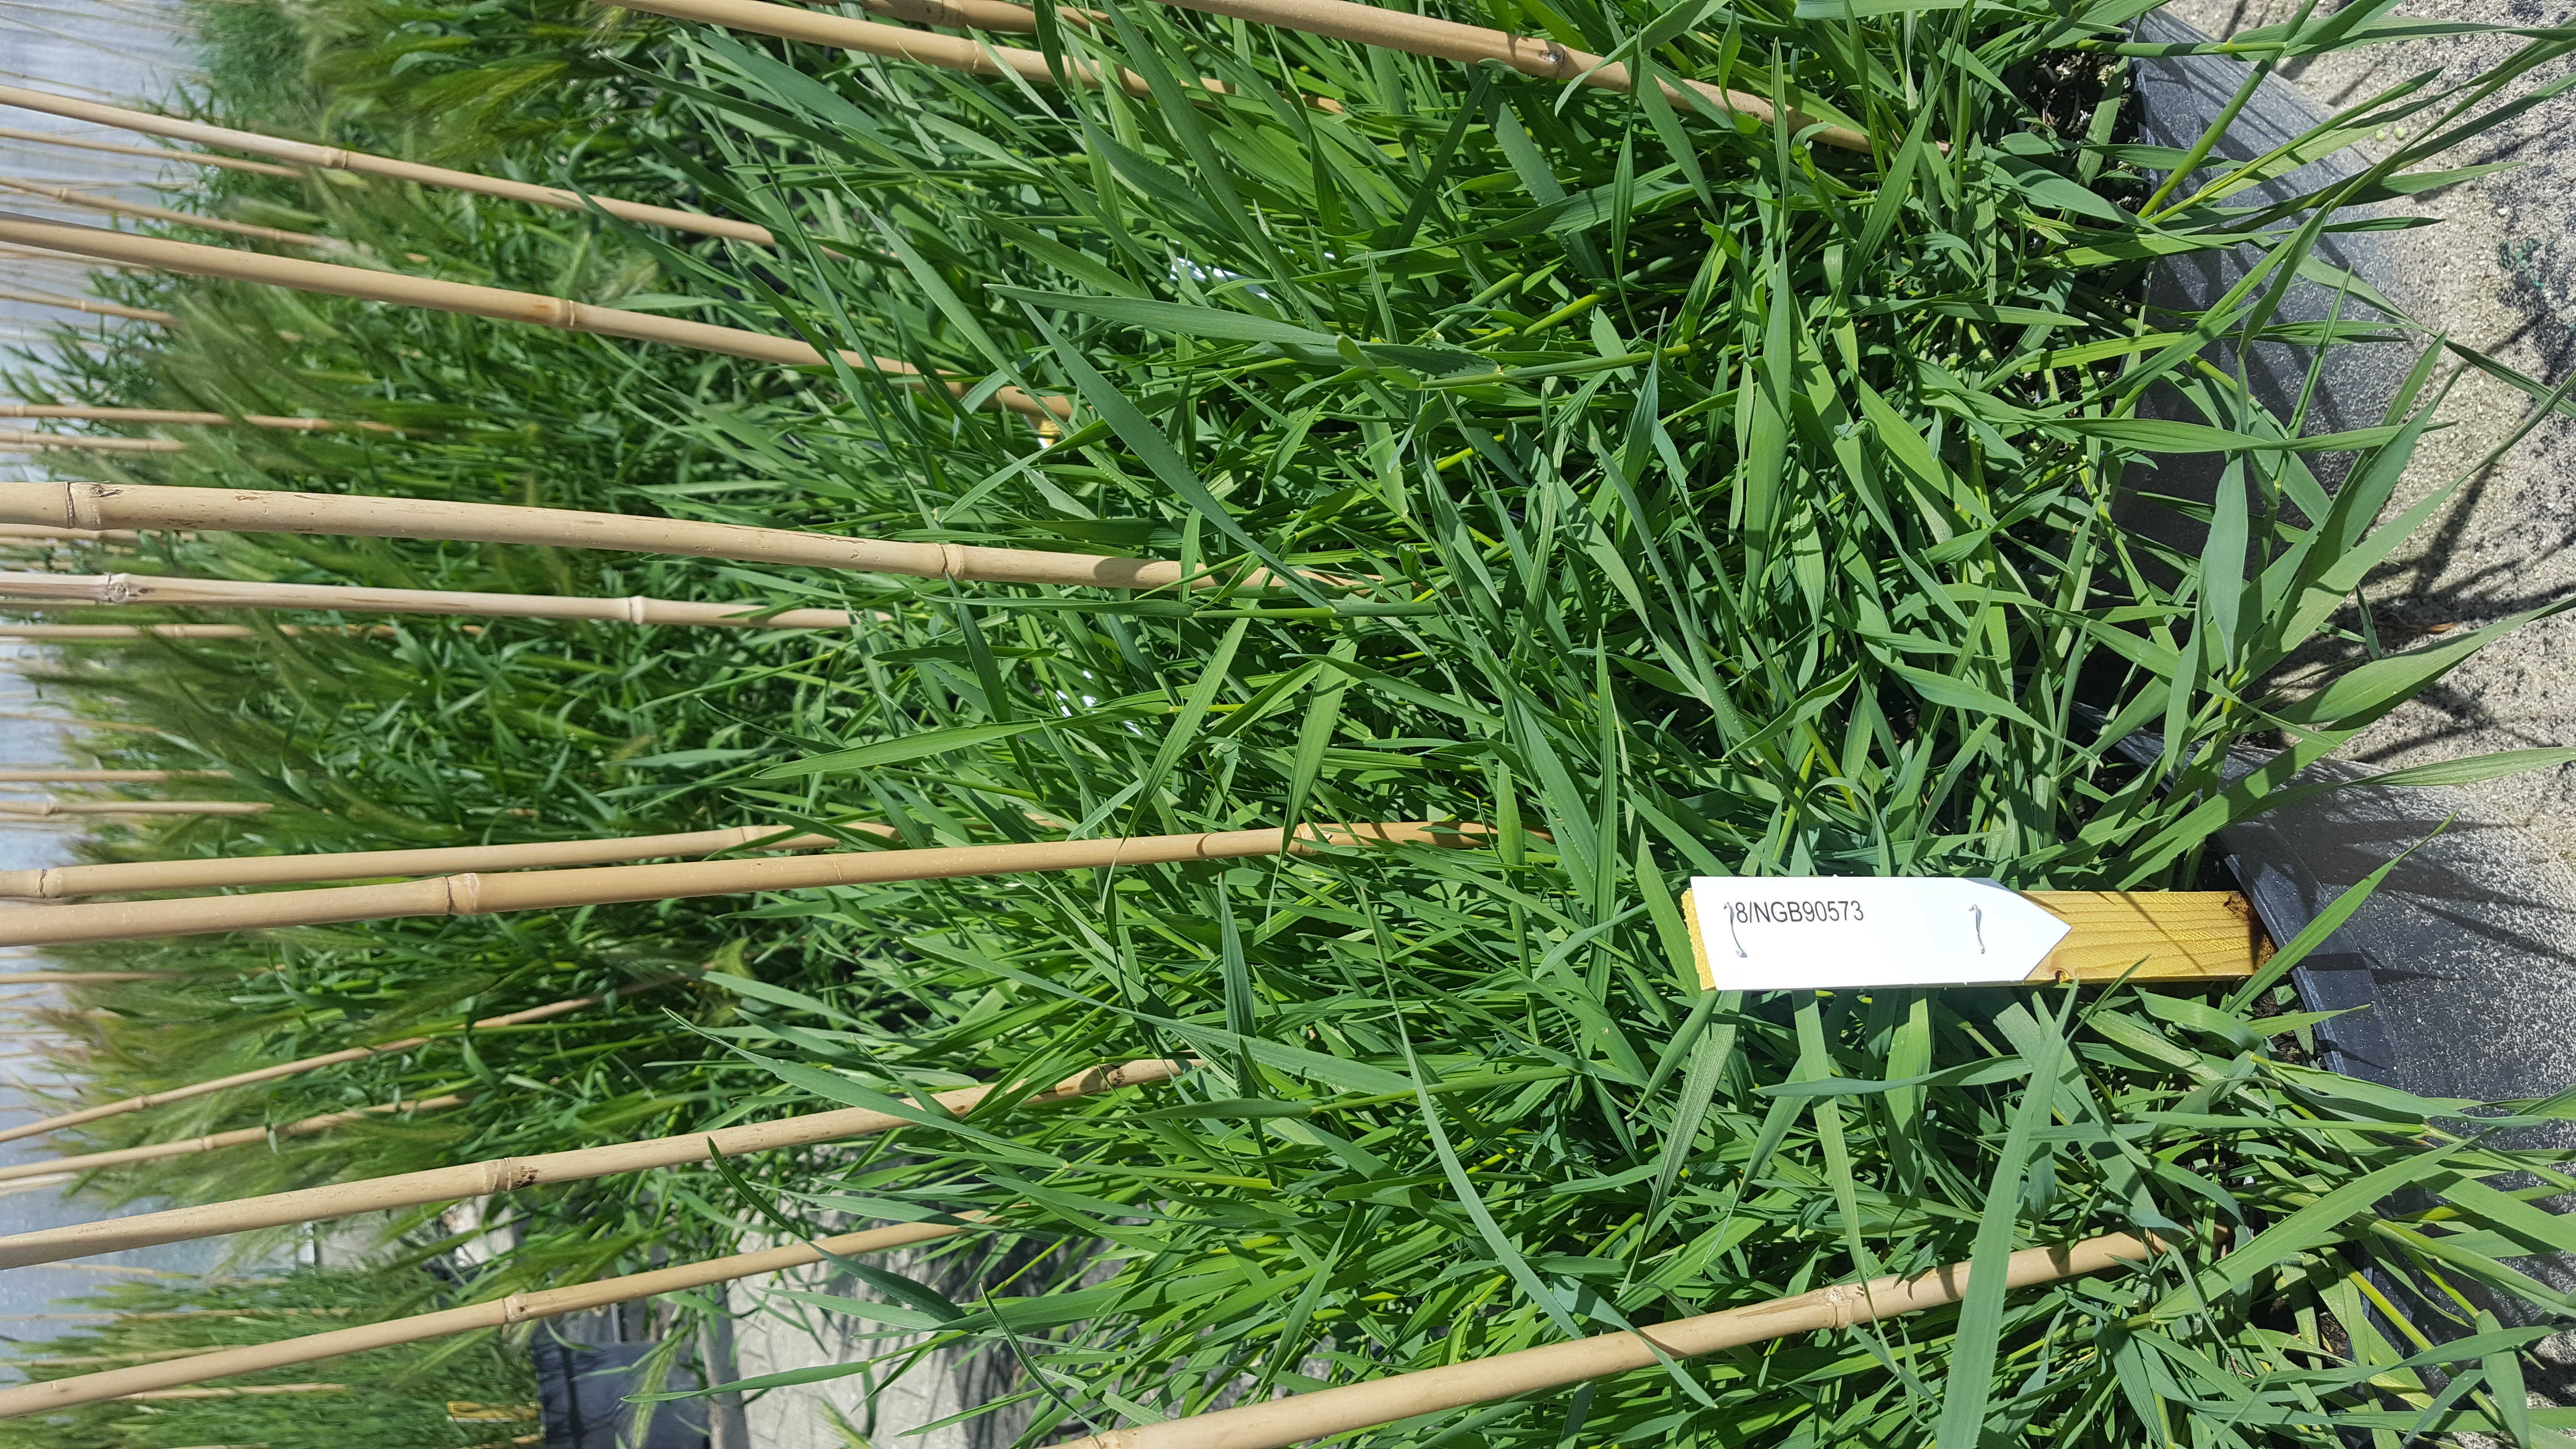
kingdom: Plantae
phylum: Tracheophyta
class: Liliopsida
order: Poales
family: Poaceae
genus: Hordeum
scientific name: Hordeum parodii
